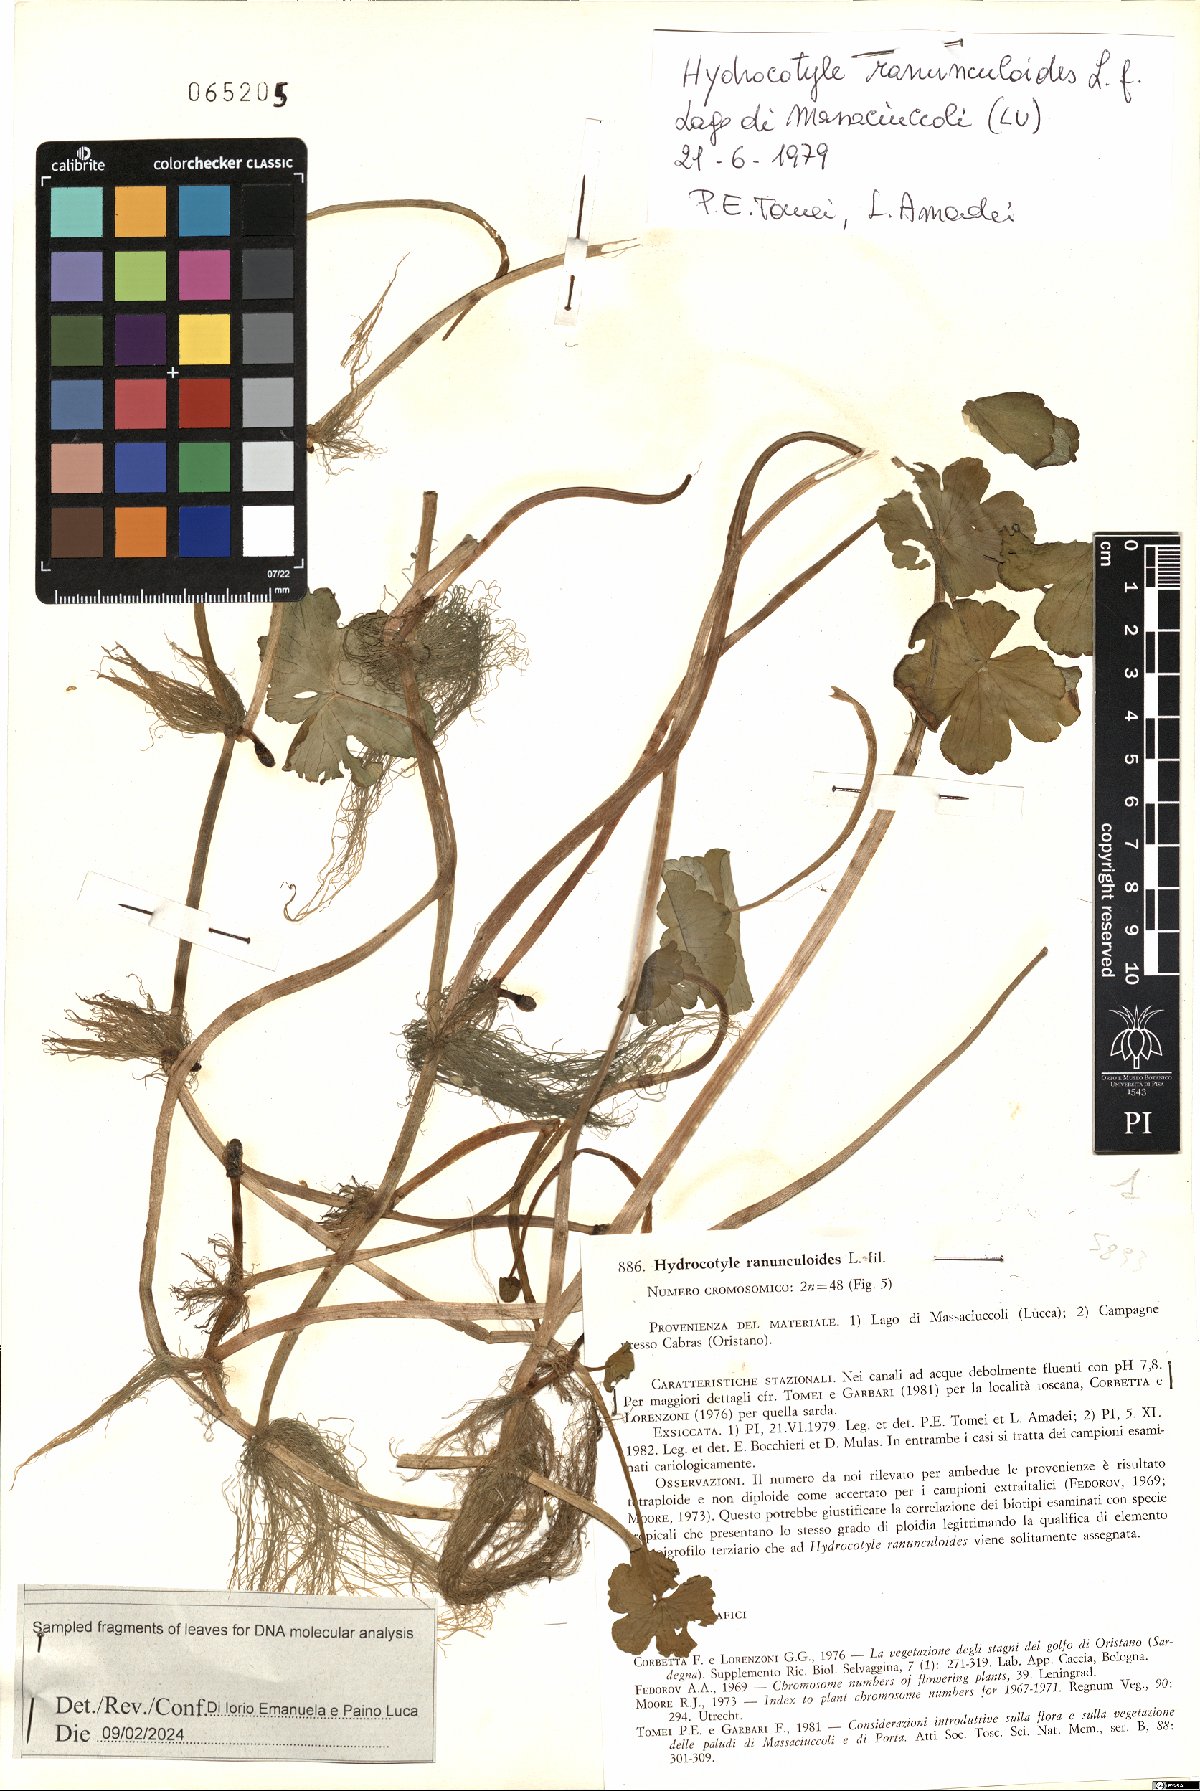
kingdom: Plantae
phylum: Tracheophyta
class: Magnoliopsida
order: Apiales
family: Araliaceae
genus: Hydrocotyle
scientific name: Hydrocotyle ranunculoides
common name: Floating pennywort
